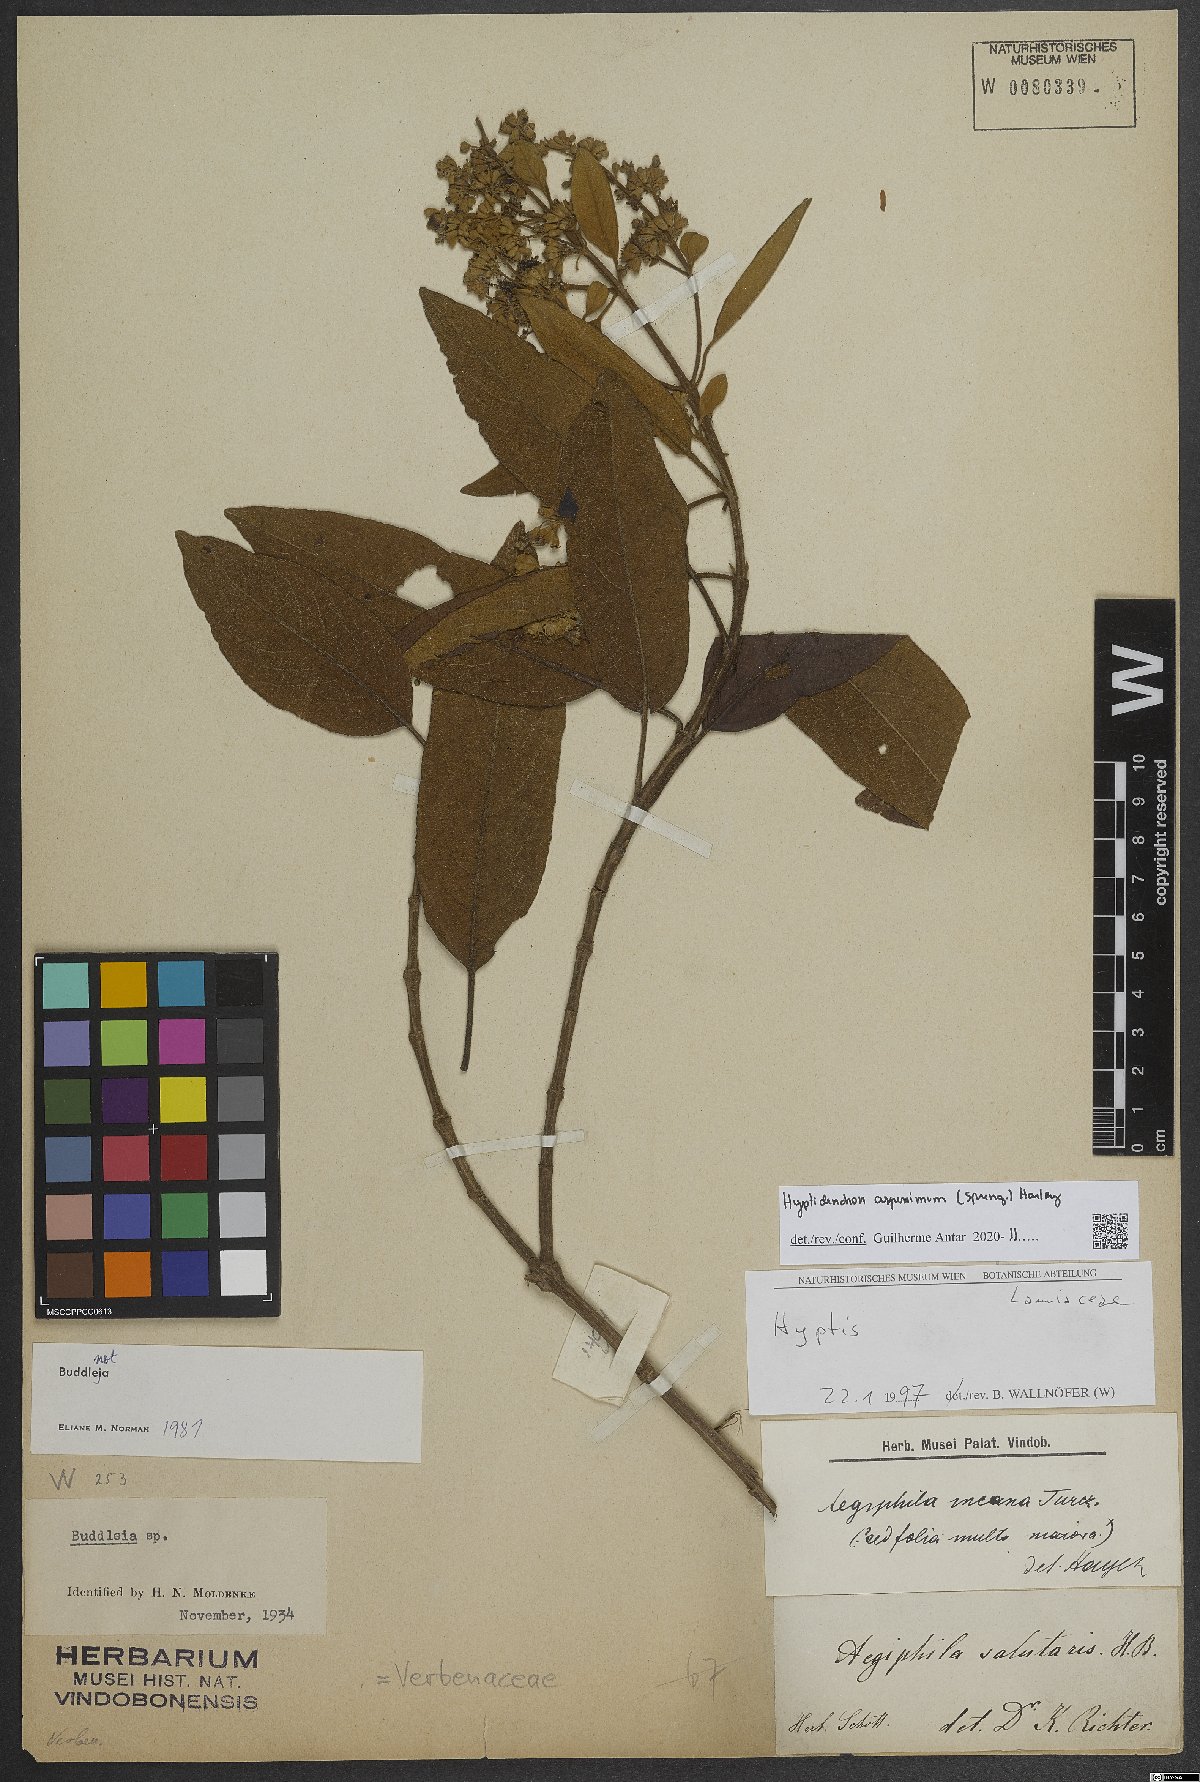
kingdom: Plantae
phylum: Tracheophyta
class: Magnoliopsida
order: Lamiales
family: Lamiaceae
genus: Hyptidendron
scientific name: Hyptidendron asperrimum
